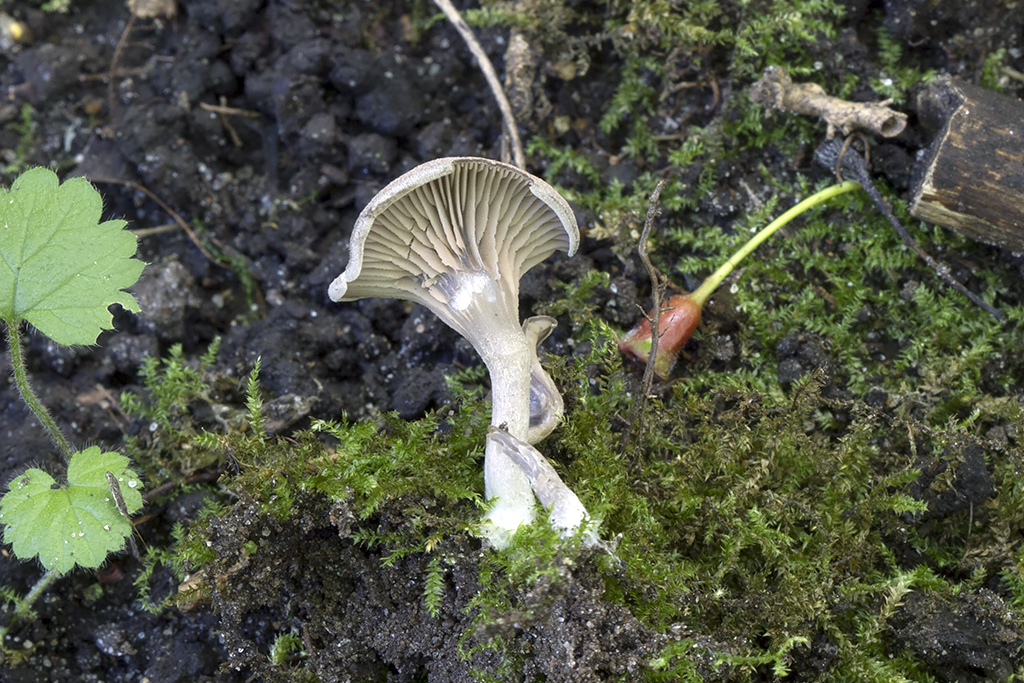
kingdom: Fungi
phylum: Basidiomycota
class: Agaricomycetes
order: Agaricales
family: Entolomataceae
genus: Entoloma
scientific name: Entoloma undatum
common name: bæltet rødblad
